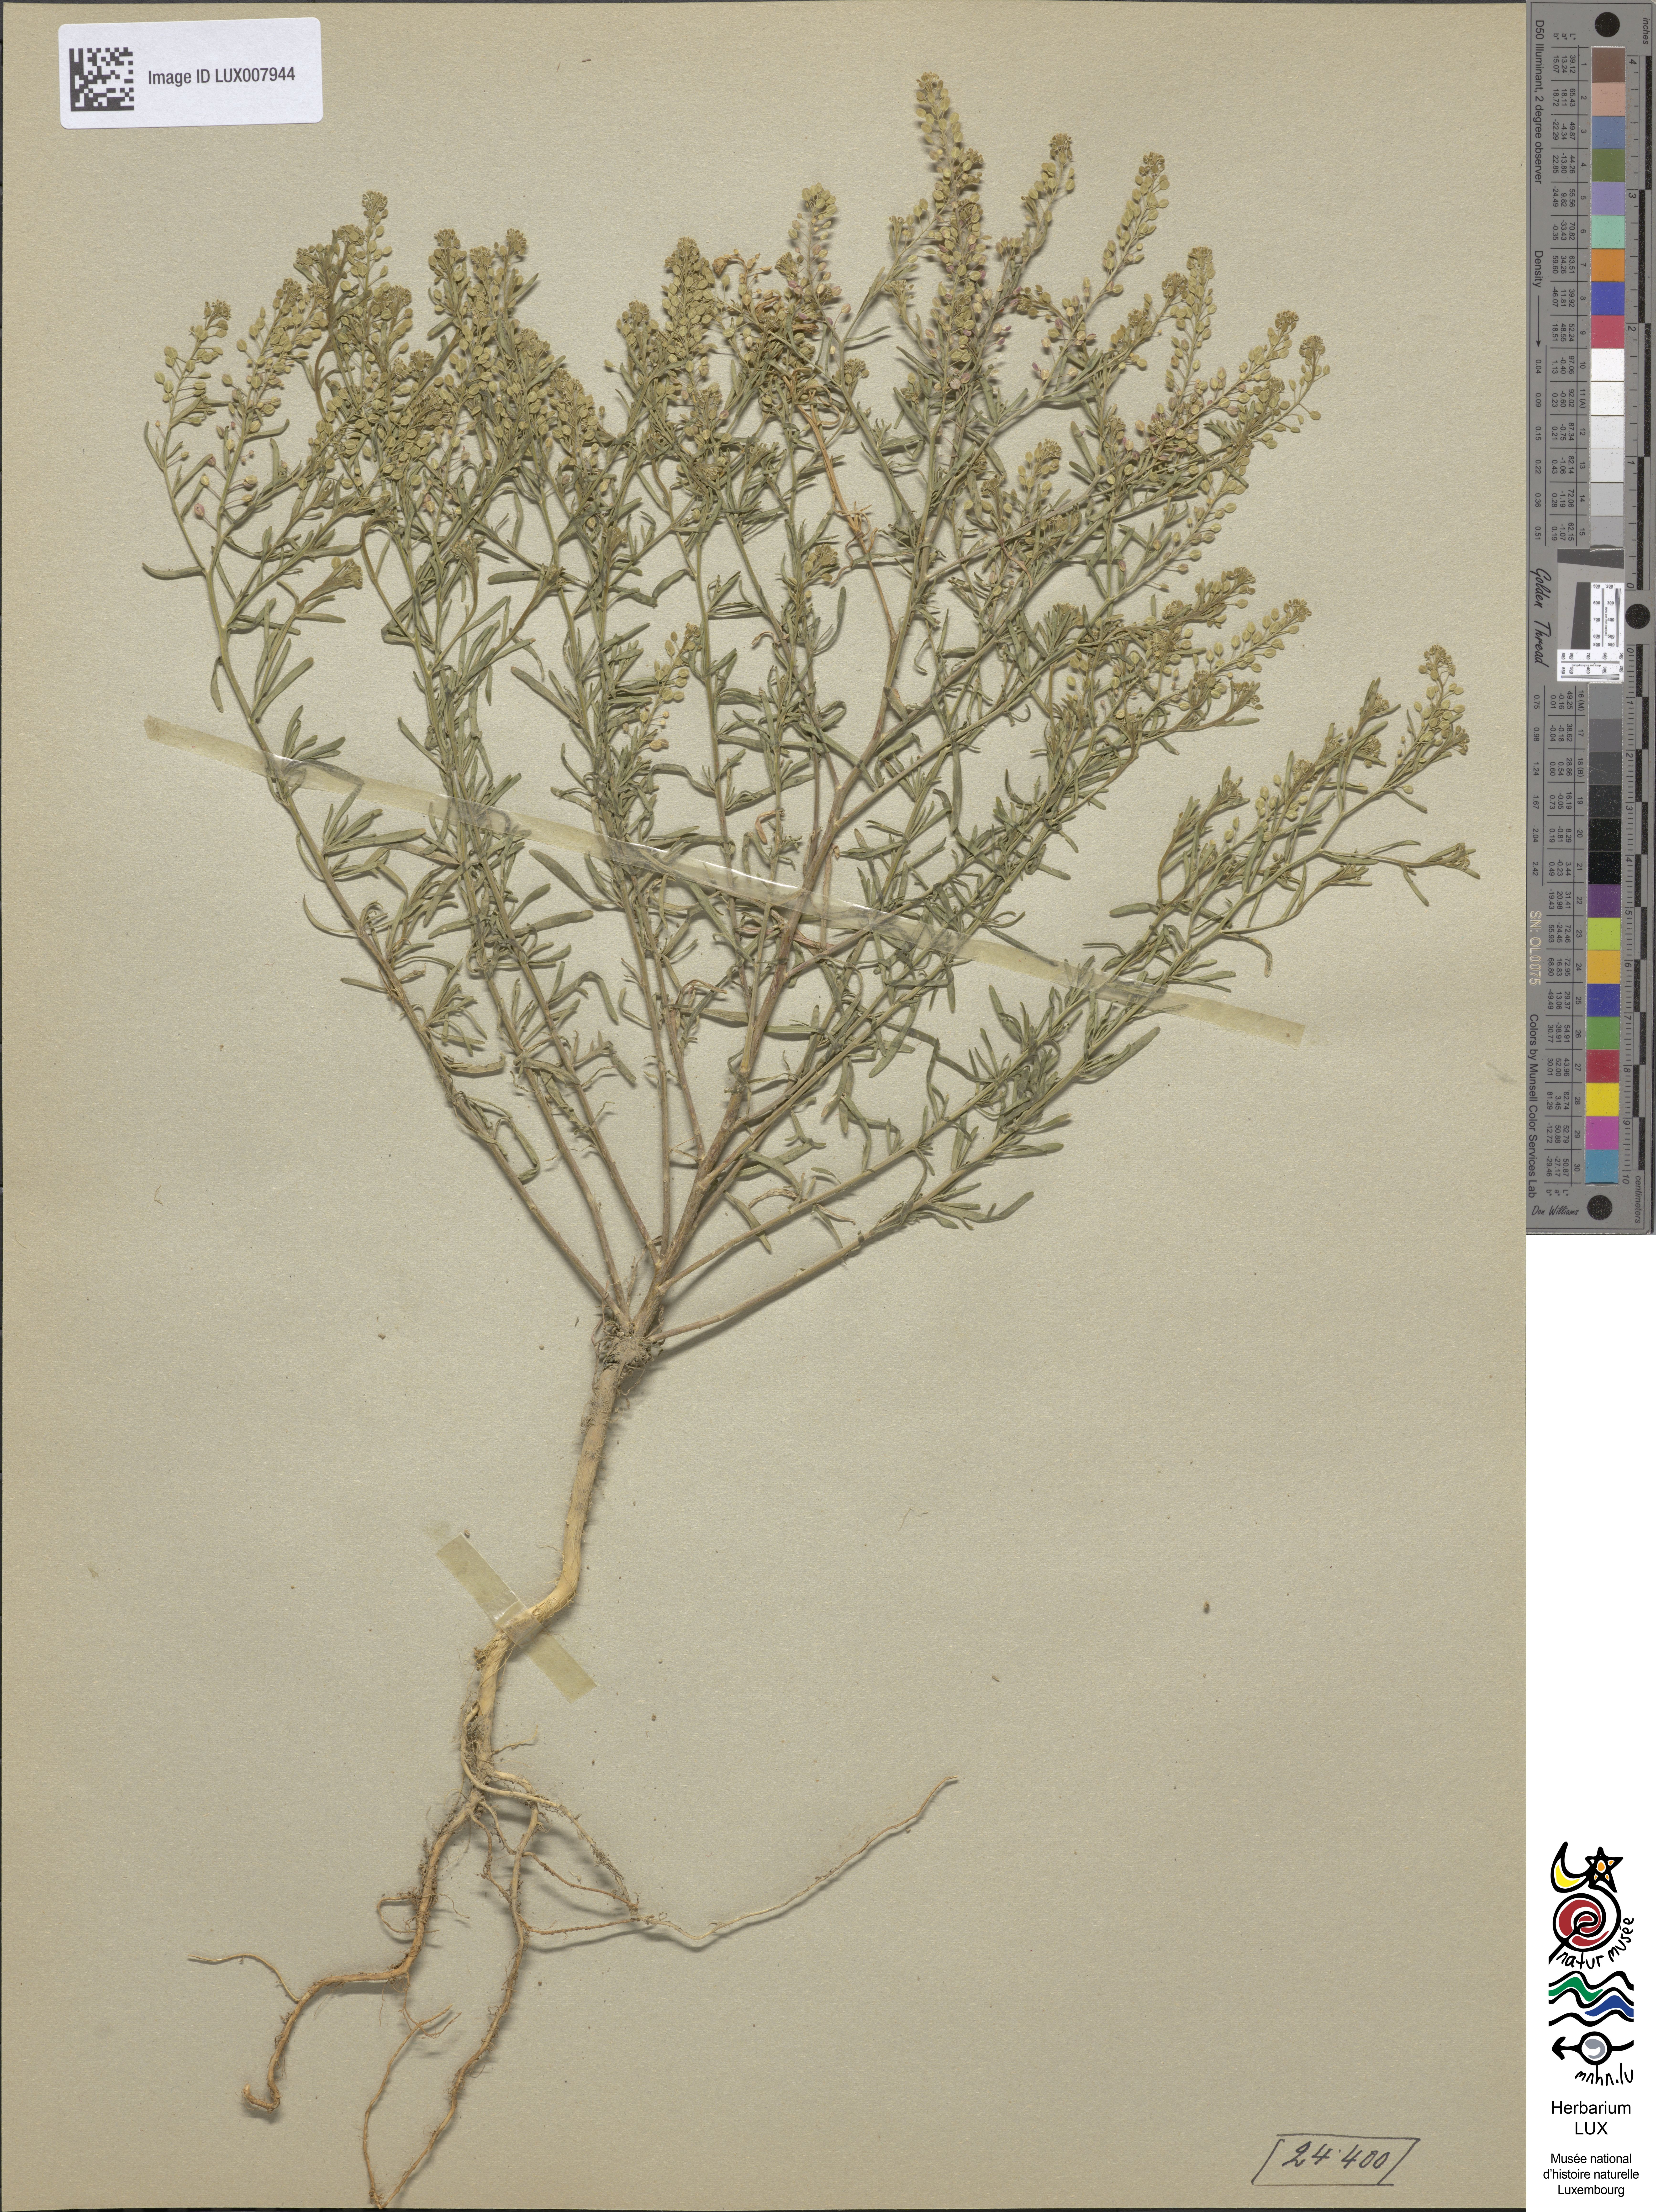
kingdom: Plantae
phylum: Tracheophyta
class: Magnoliopsida
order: Brassicales
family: Brassicaceae
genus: Lepidium
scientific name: Lepidium ruderale
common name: Narrow-leaved pepperwort
